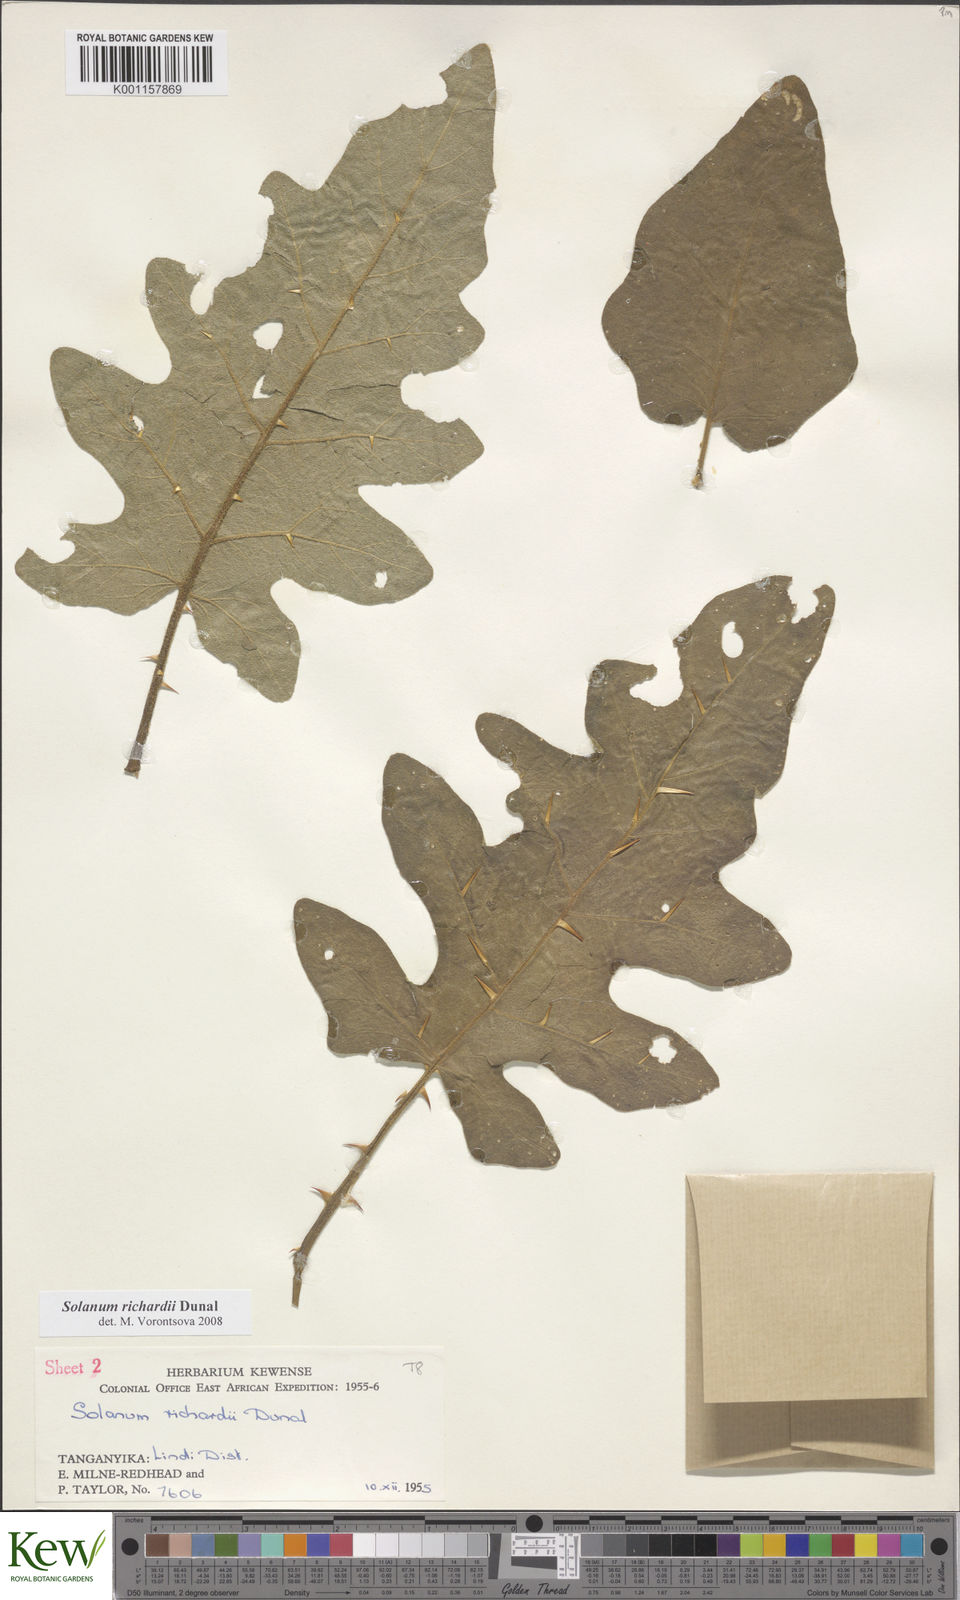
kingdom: Plantae
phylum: Tracheophyta
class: Magnoliopsida
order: Solanales
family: Solanaceae
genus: Solanum
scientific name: Solanum richardii
